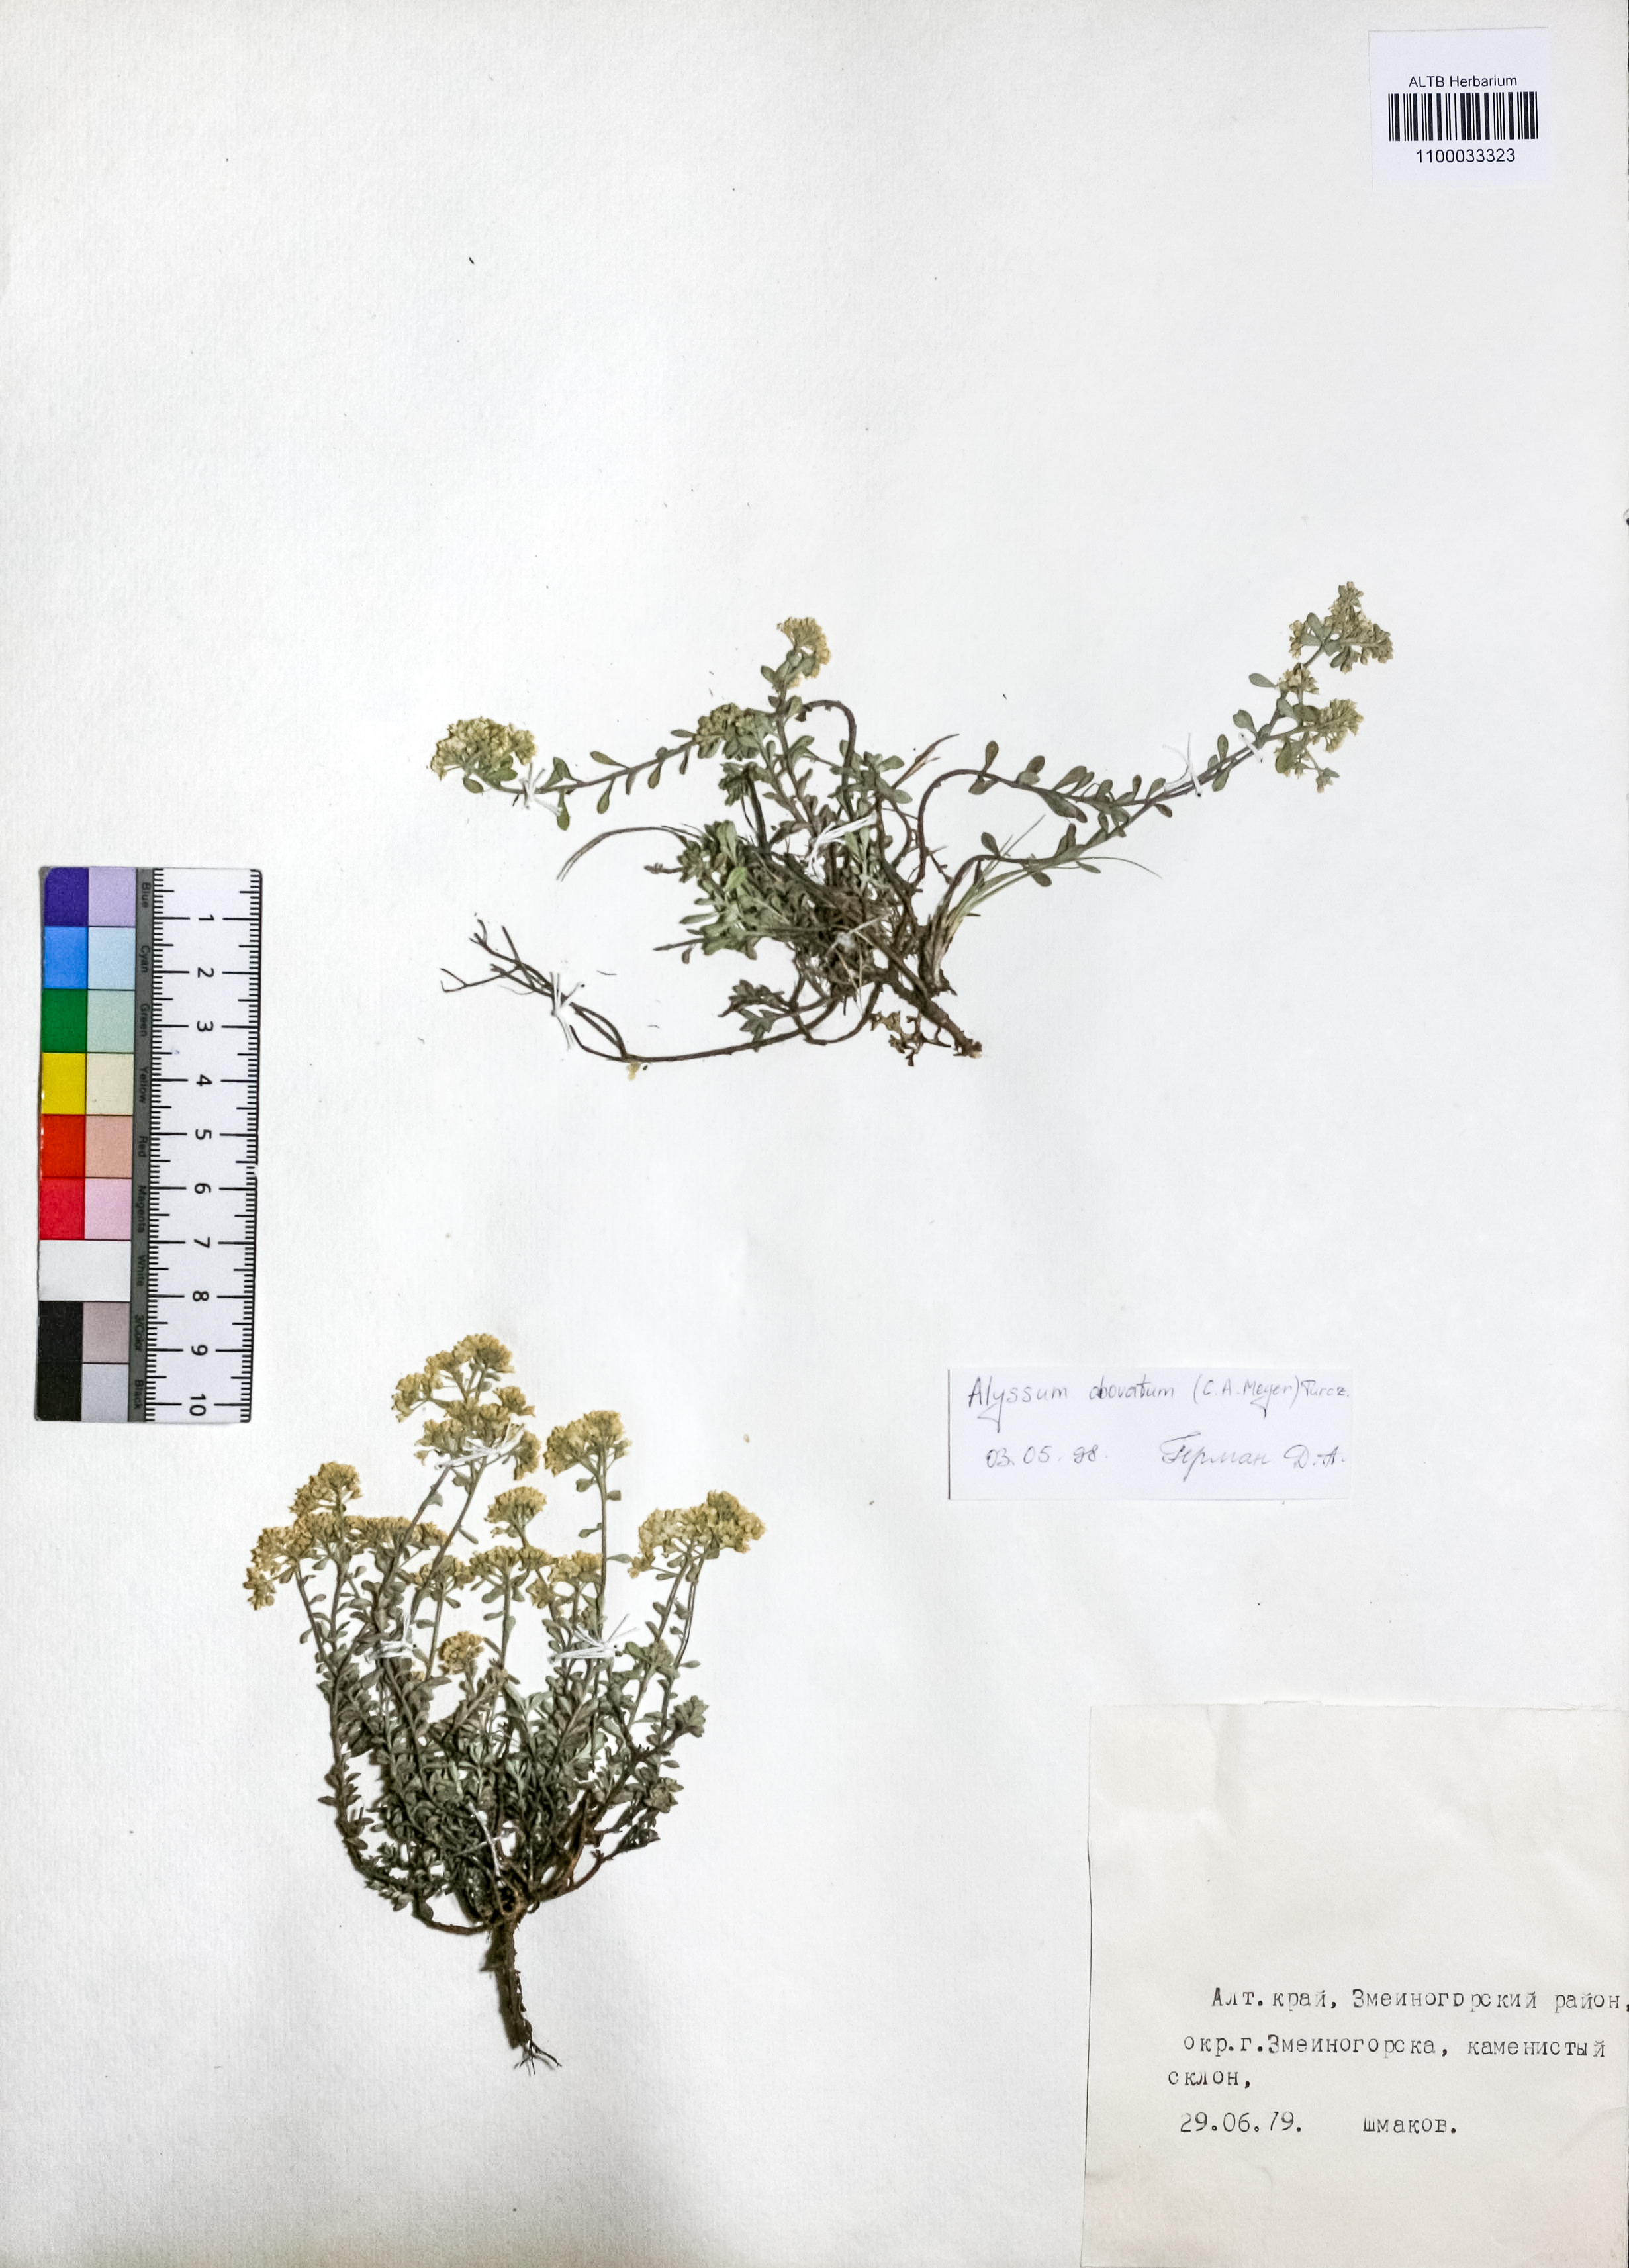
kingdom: Plantae
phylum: Tracheophyta
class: Magnoliopsida
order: Brassicales
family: Brassicaceae
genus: Odontarrhena
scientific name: Odontarrhena obovata
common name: American alyssum
